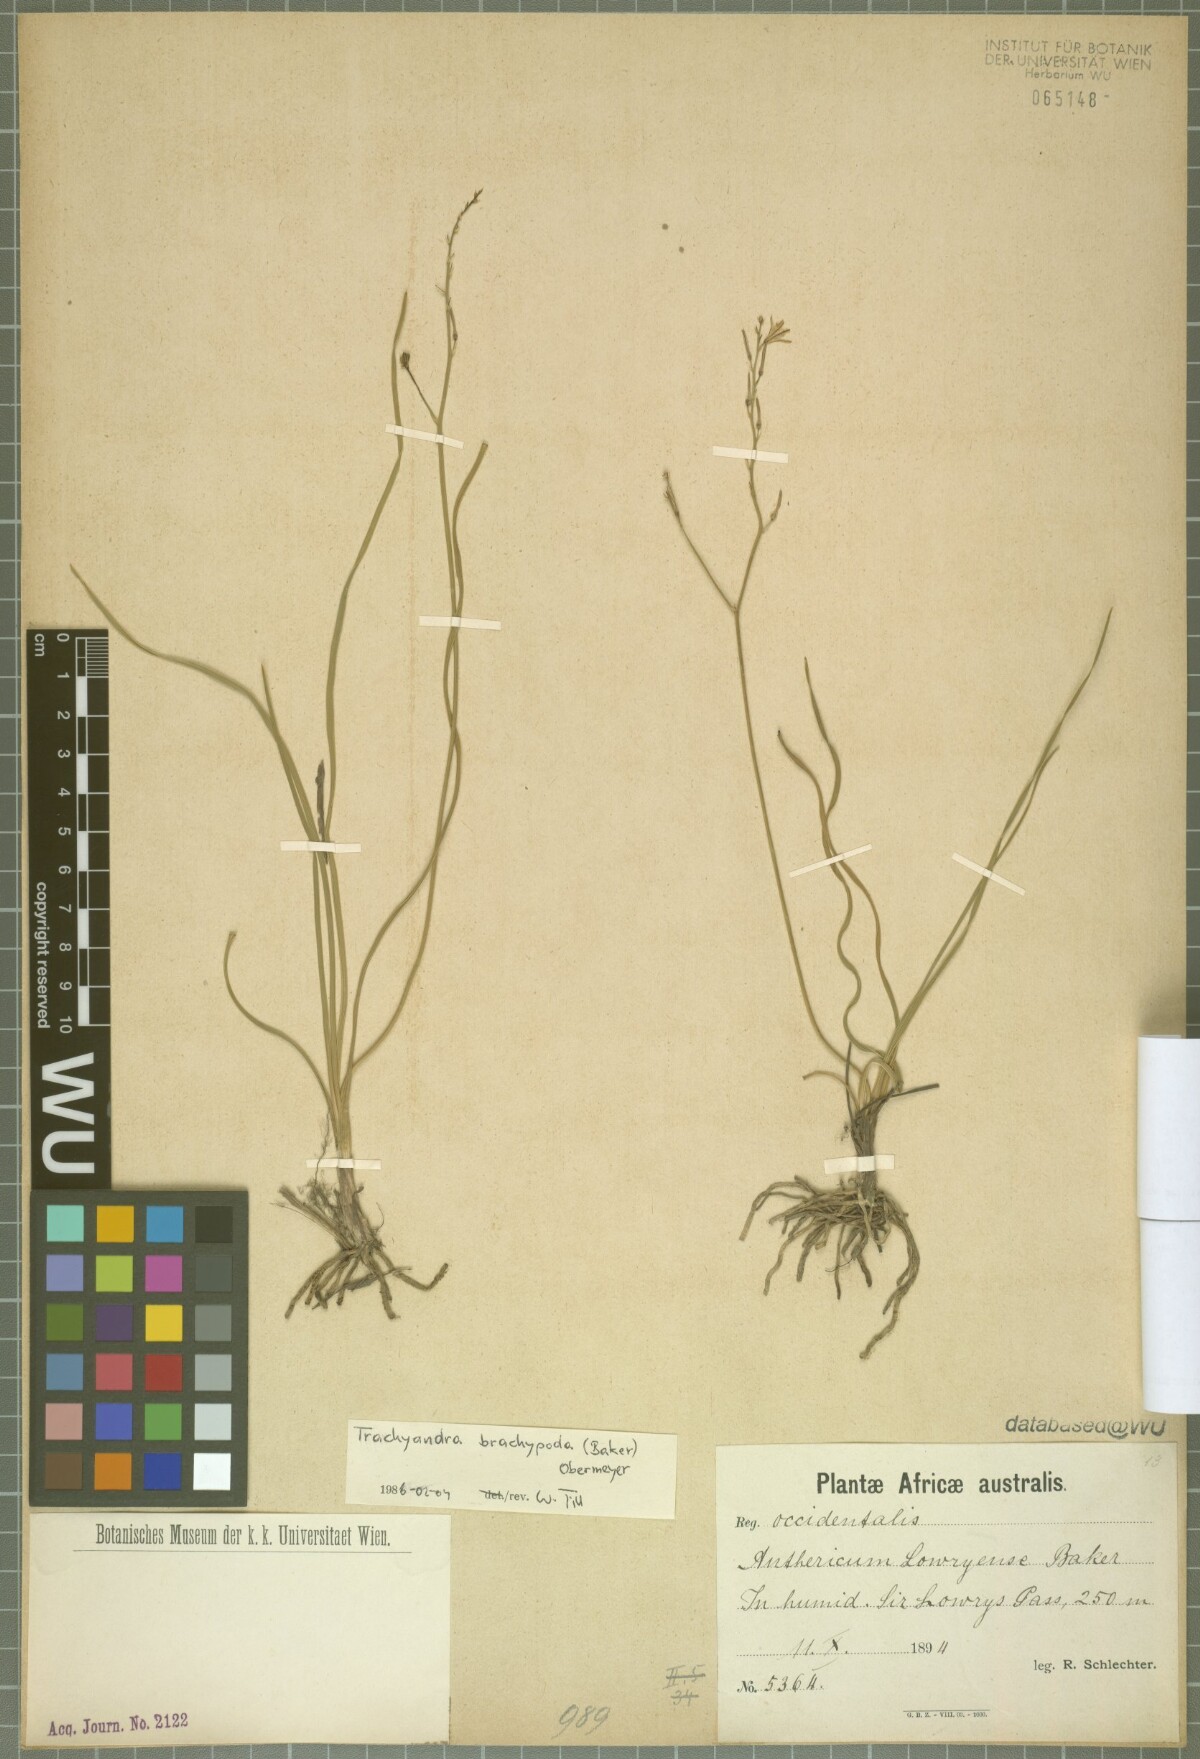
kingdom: Plantae
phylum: Tracheophyta
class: Liliopsida
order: Asparagales
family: Asphodelaceae
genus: Trachyandra
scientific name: Trachyandra brachypoda
